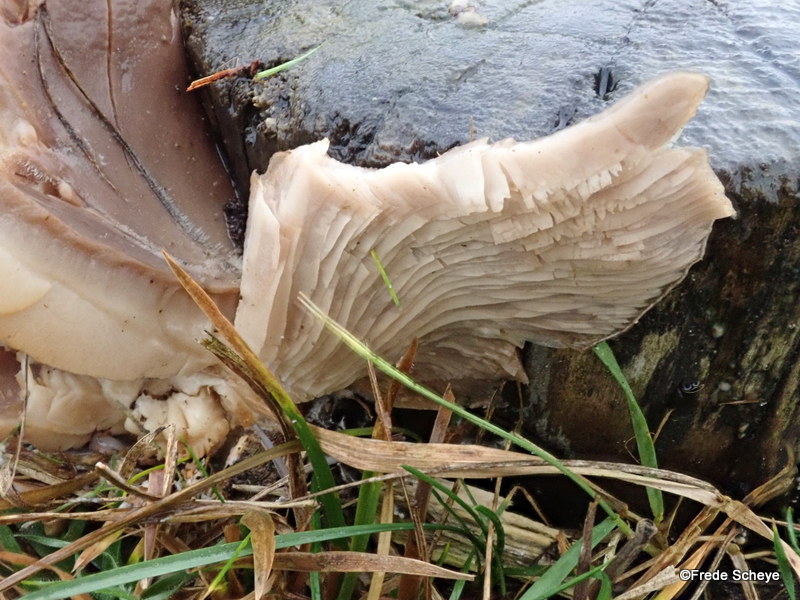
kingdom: Fungi
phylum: Basidiomycota
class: Agaricomycetes
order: Agaricales
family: Pleurotaceae
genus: Pleurotus
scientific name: Pleurotus ostreatus
